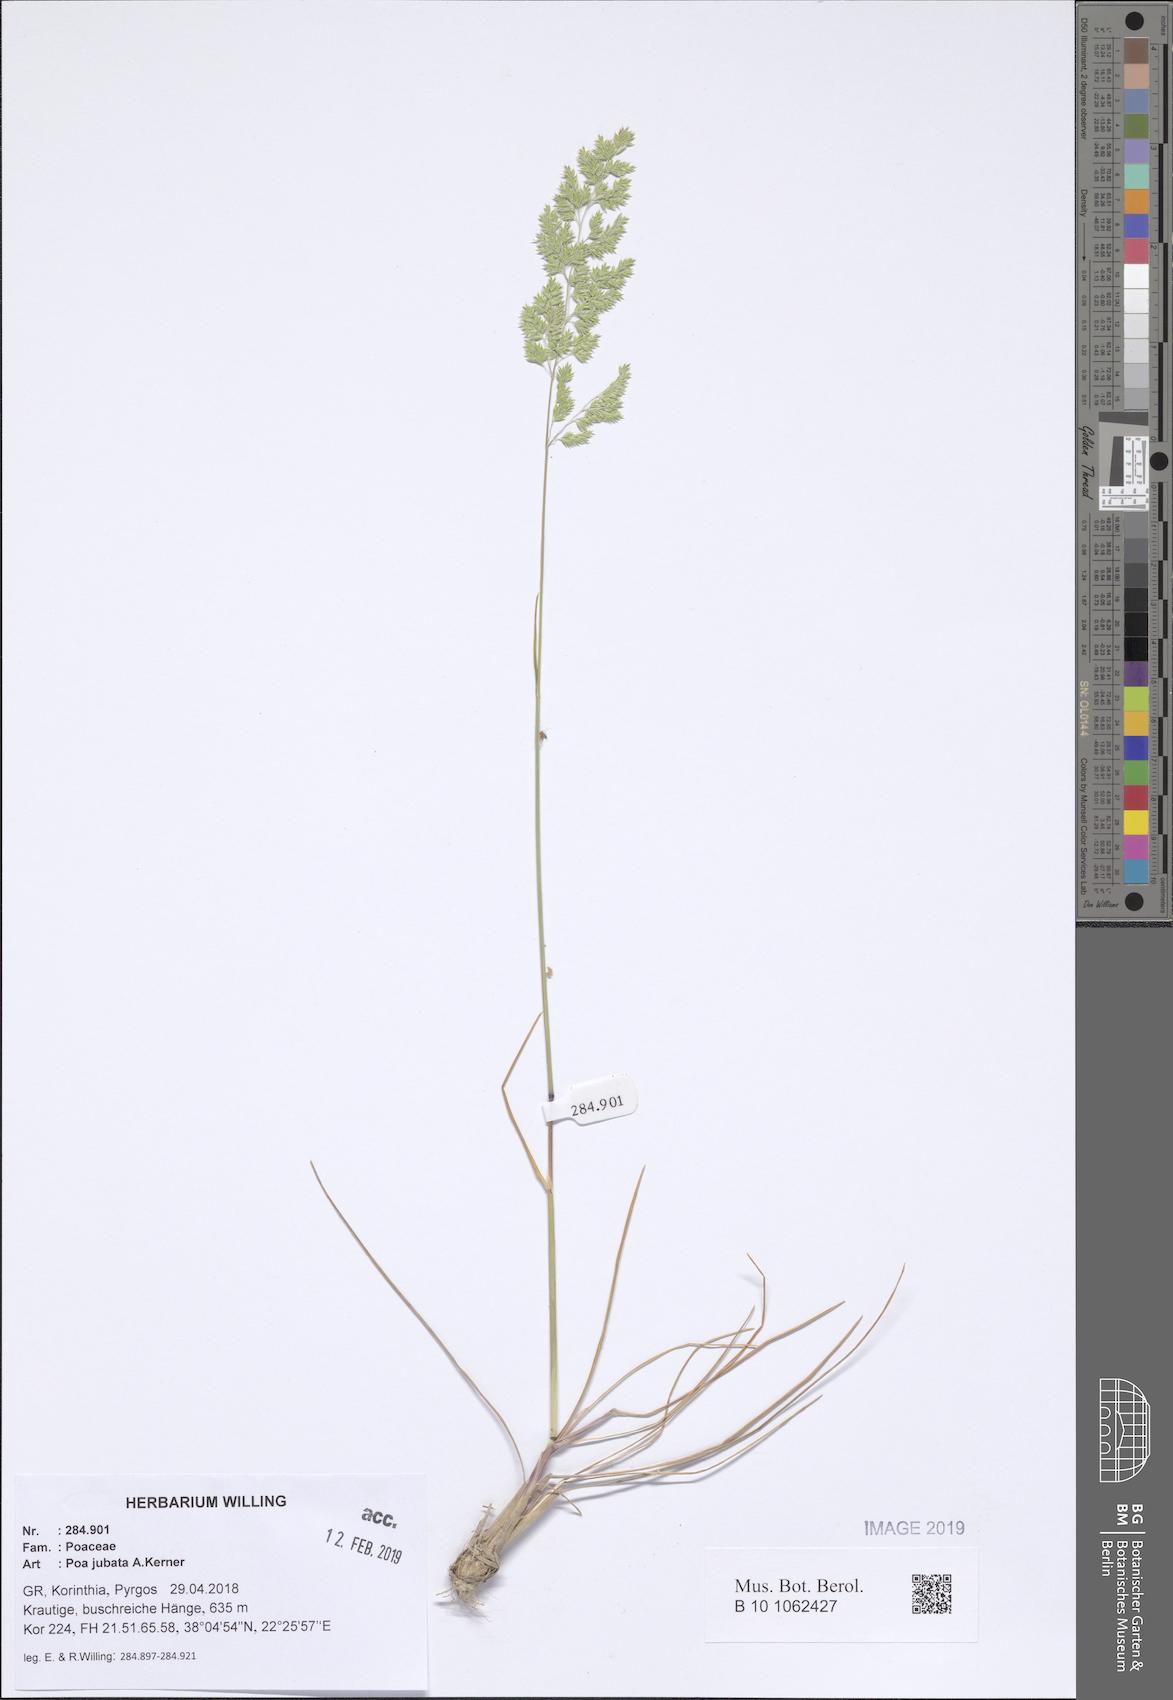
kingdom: Plantae
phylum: Tracheophyta
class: Liliopsida
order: Poales
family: Poaceae
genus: Poa
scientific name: Poa jubata
